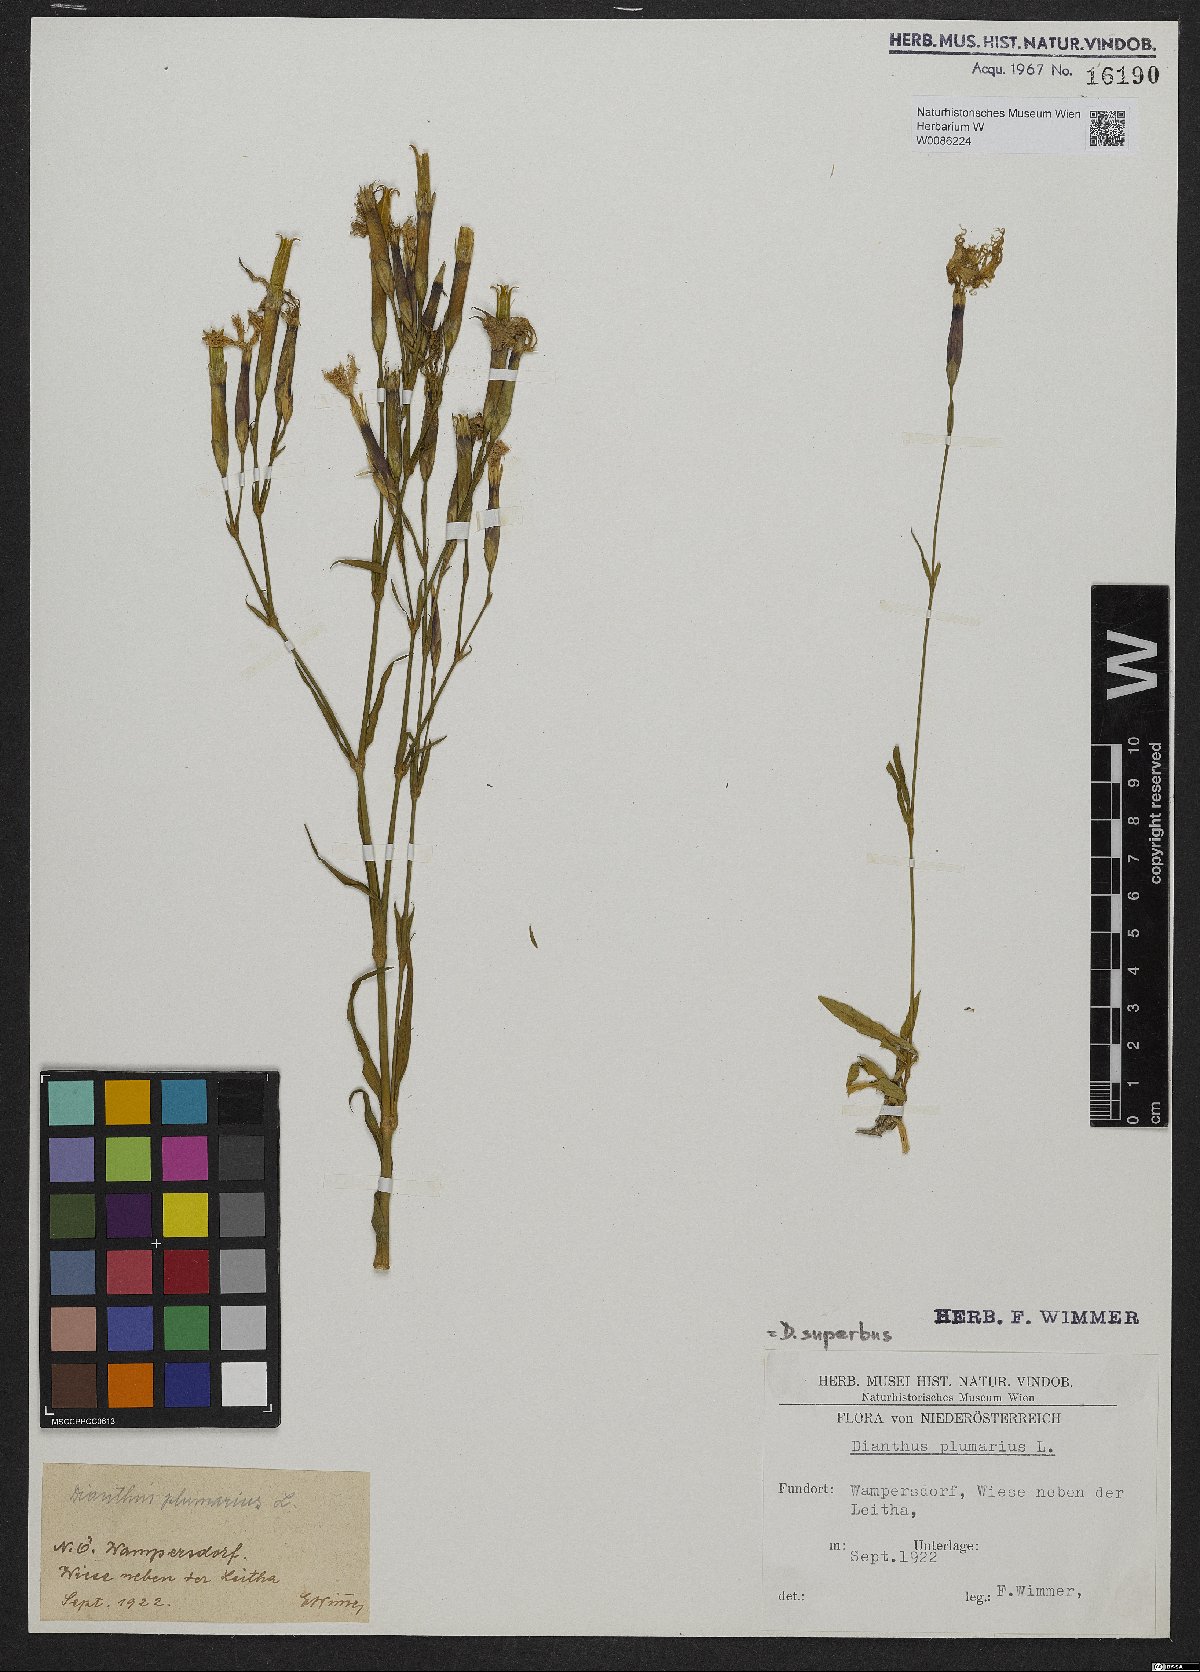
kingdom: Plantae
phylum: Tracheophyta
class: Magnoliopsida
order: Caryophyllales
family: Caryophyllaceae
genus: Dianthus
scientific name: Dianthus superbus
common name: Fringed pink
